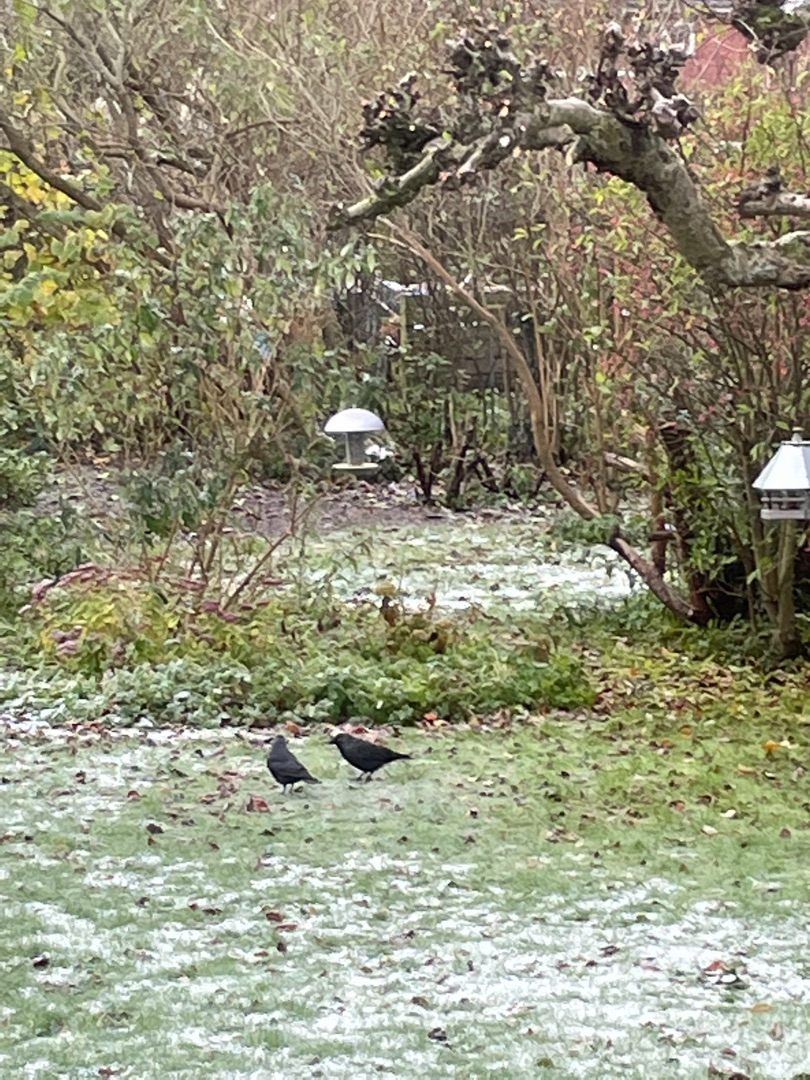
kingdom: Animalia
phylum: Chordata
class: Aves
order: Passeriformes
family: Corvidae
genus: Coloeus
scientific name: Coloeus monedula
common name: Allike
